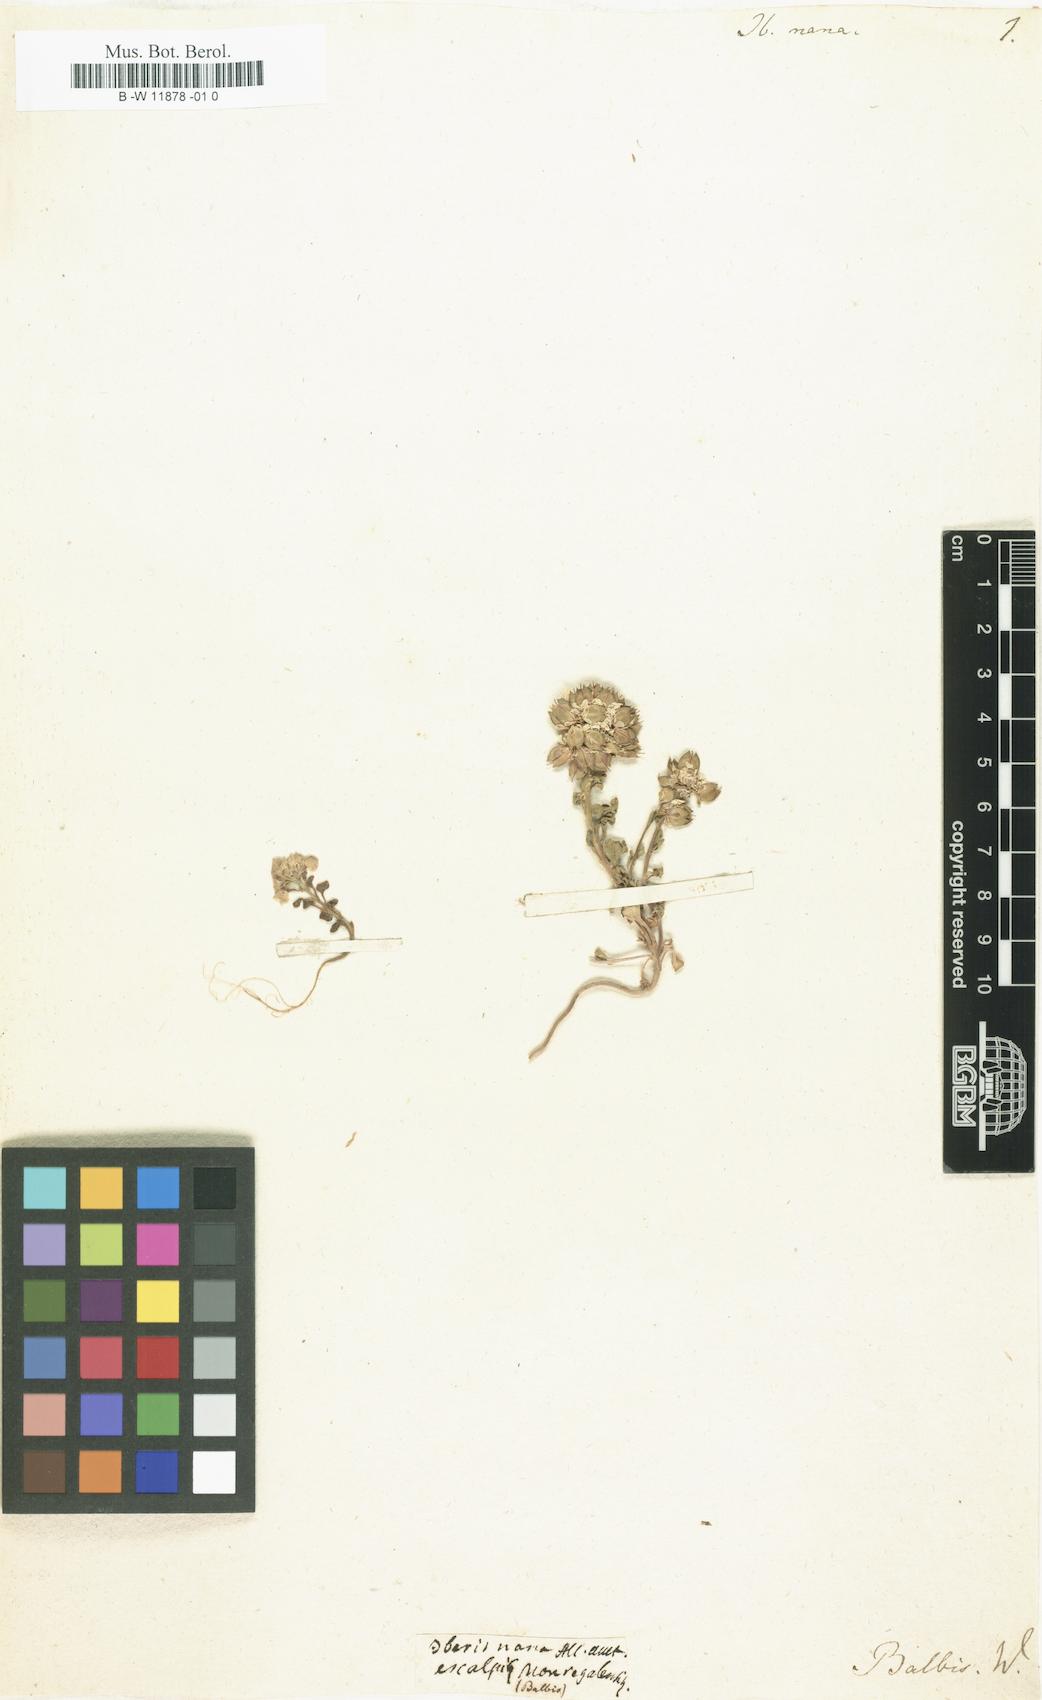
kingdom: Plantae
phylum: Tracheophyta
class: Magnoliopsida
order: Brassicales
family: Brassicaceae
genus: Iberis
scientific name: Iberis aurosica
